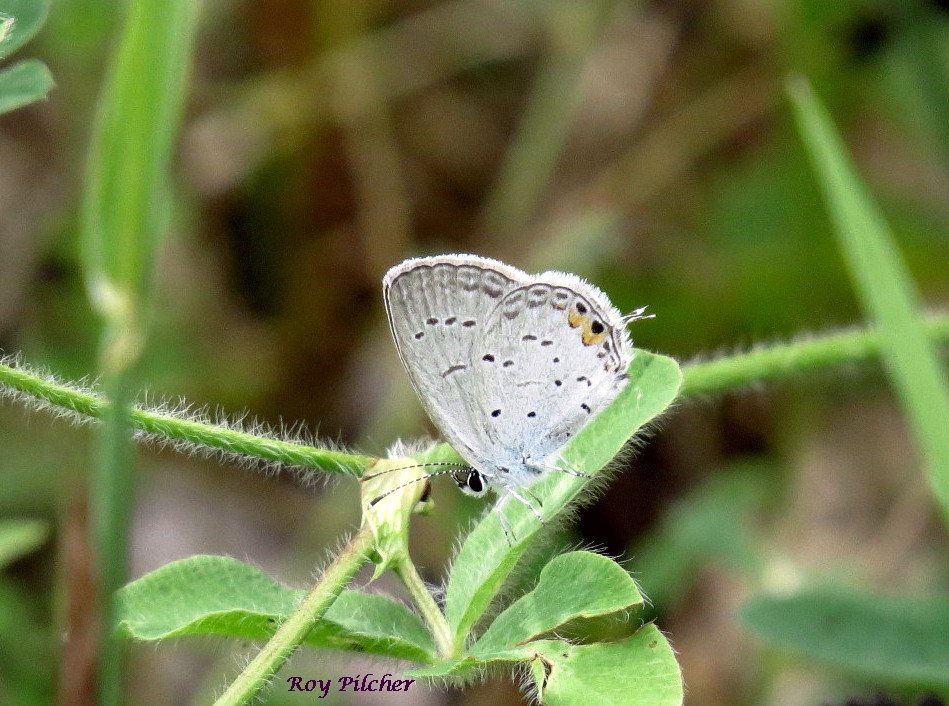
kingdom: Animalia
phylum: Arthropoda
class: Insecta
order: Lepidoptera
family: Lycaenidae
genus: Elkalyce
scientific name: Elkalyce comyntas
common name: Eastern Tailed-Blue
